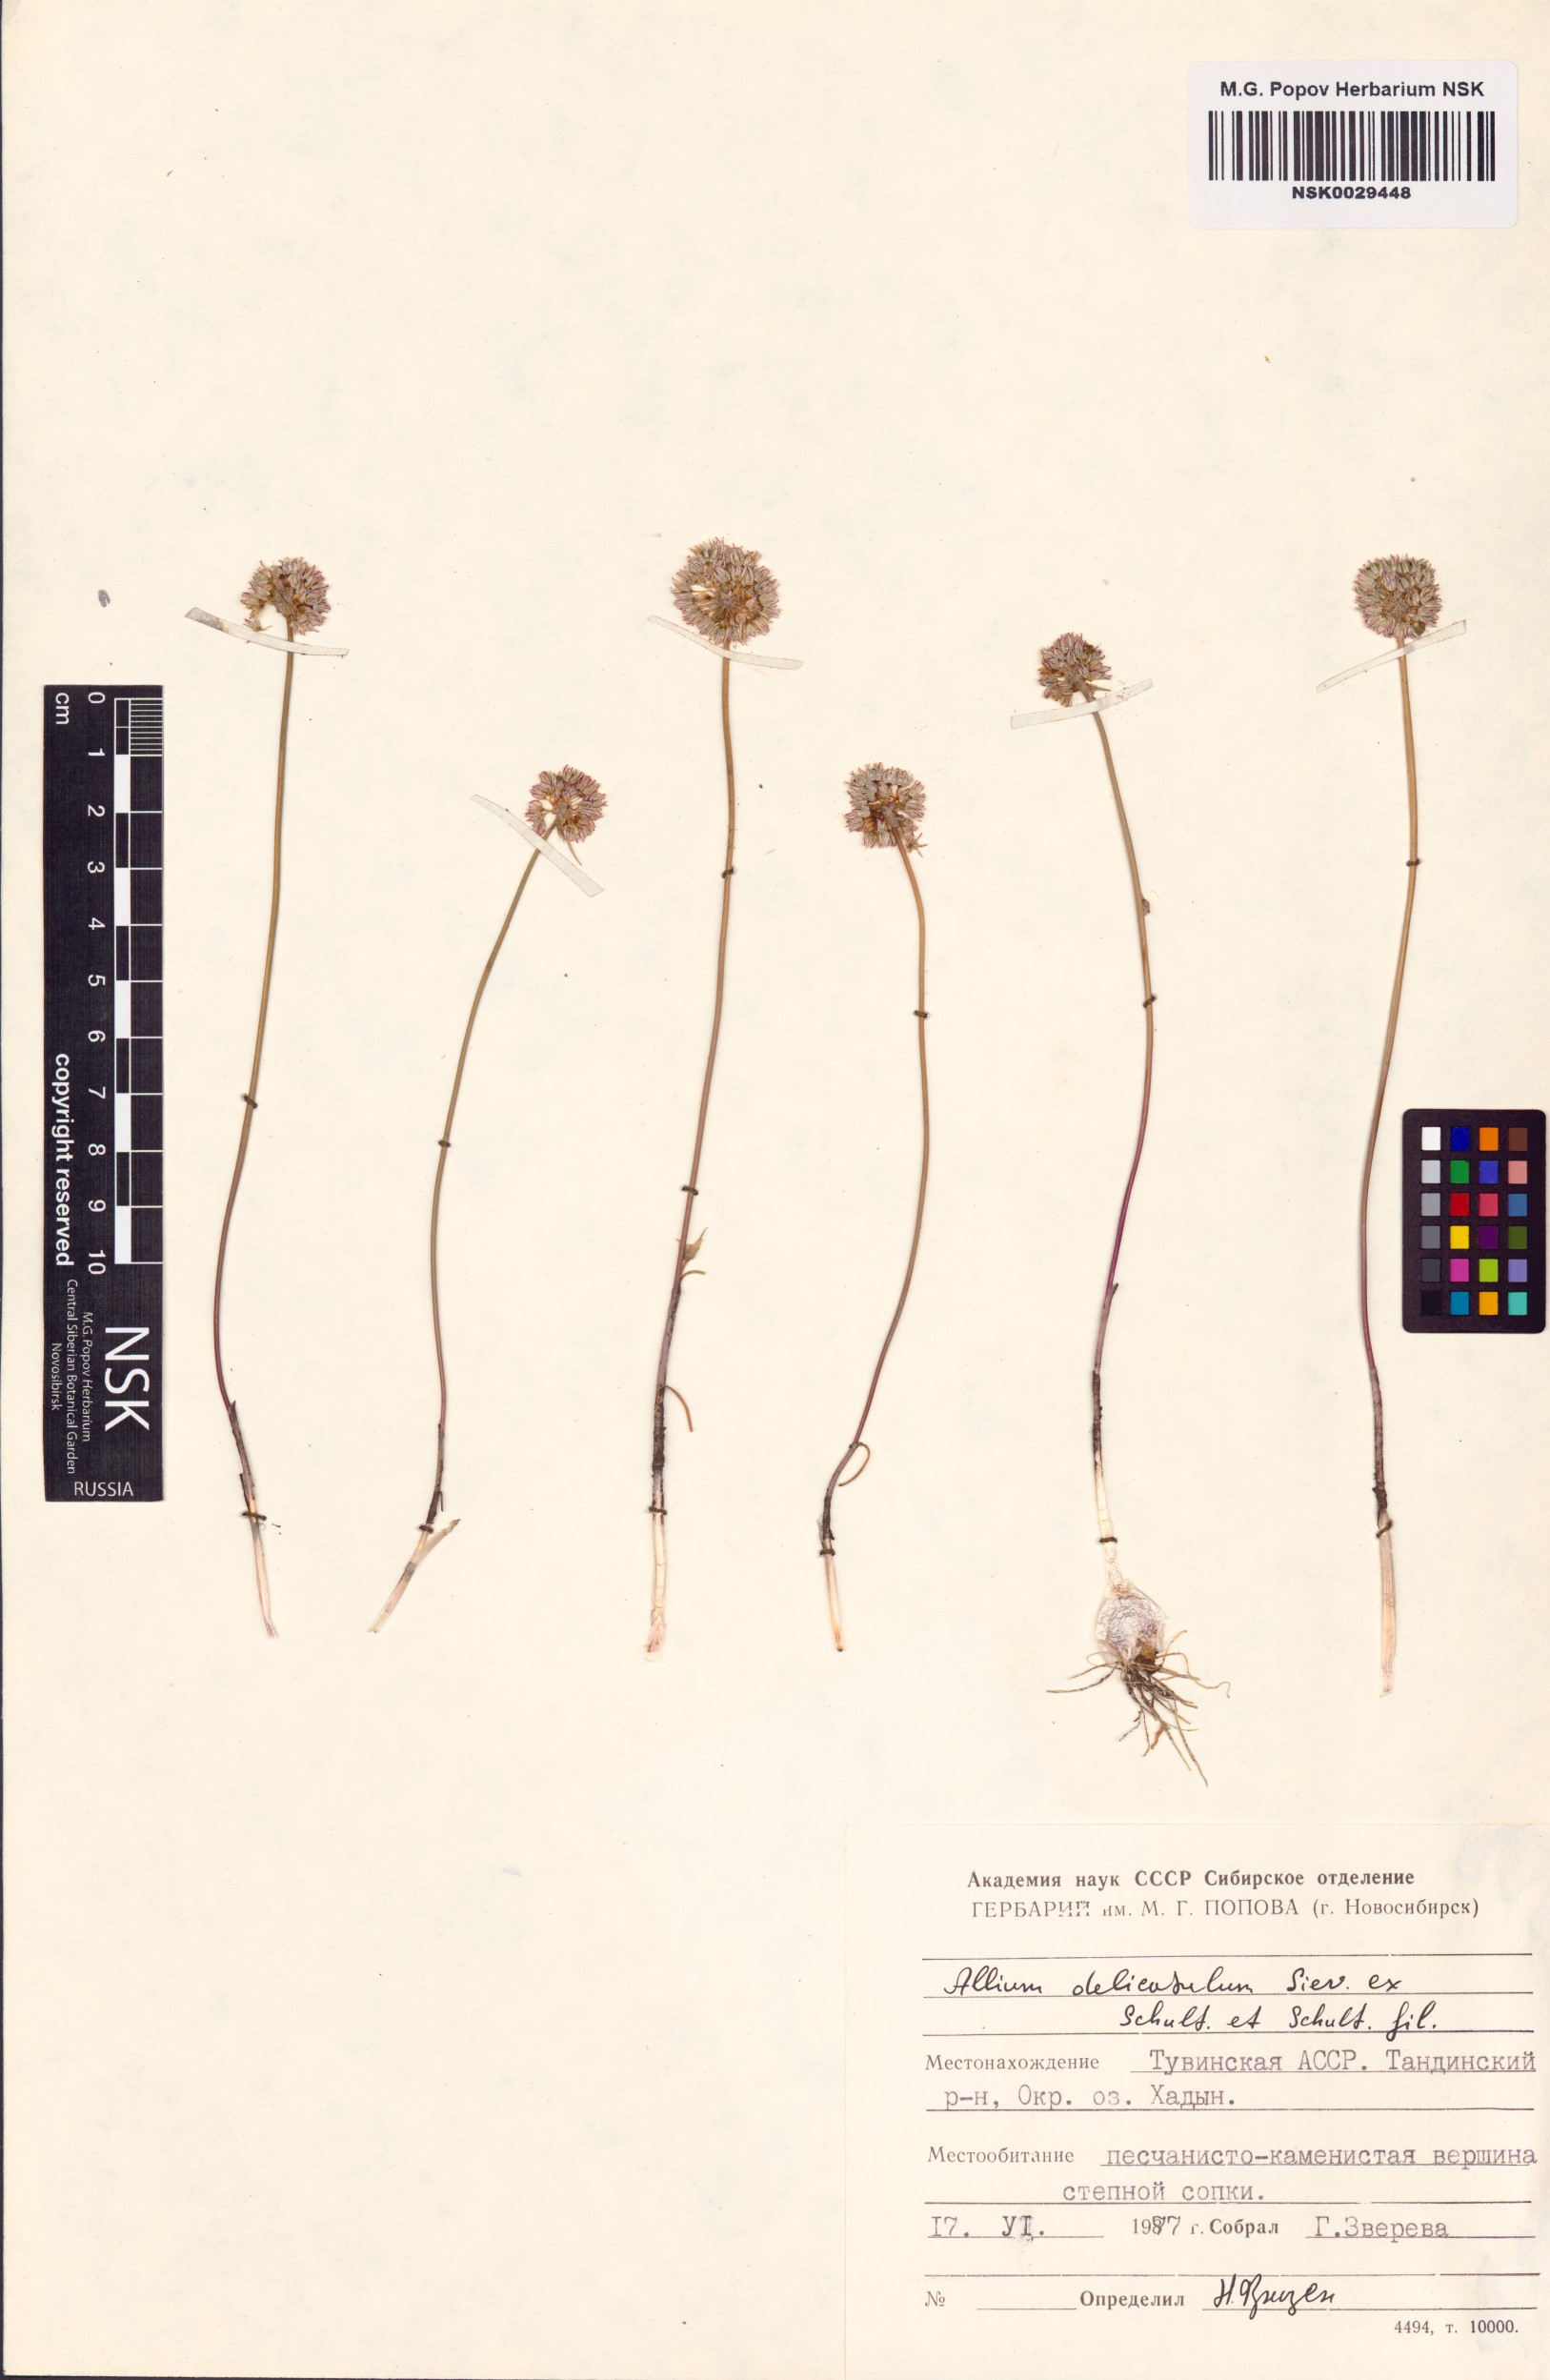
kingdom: Plantae
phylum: Tracheophyta
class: Liliopsida
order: Asparagales
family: Amaryllidaceae
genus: Allium
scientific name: Allium delicatulum
